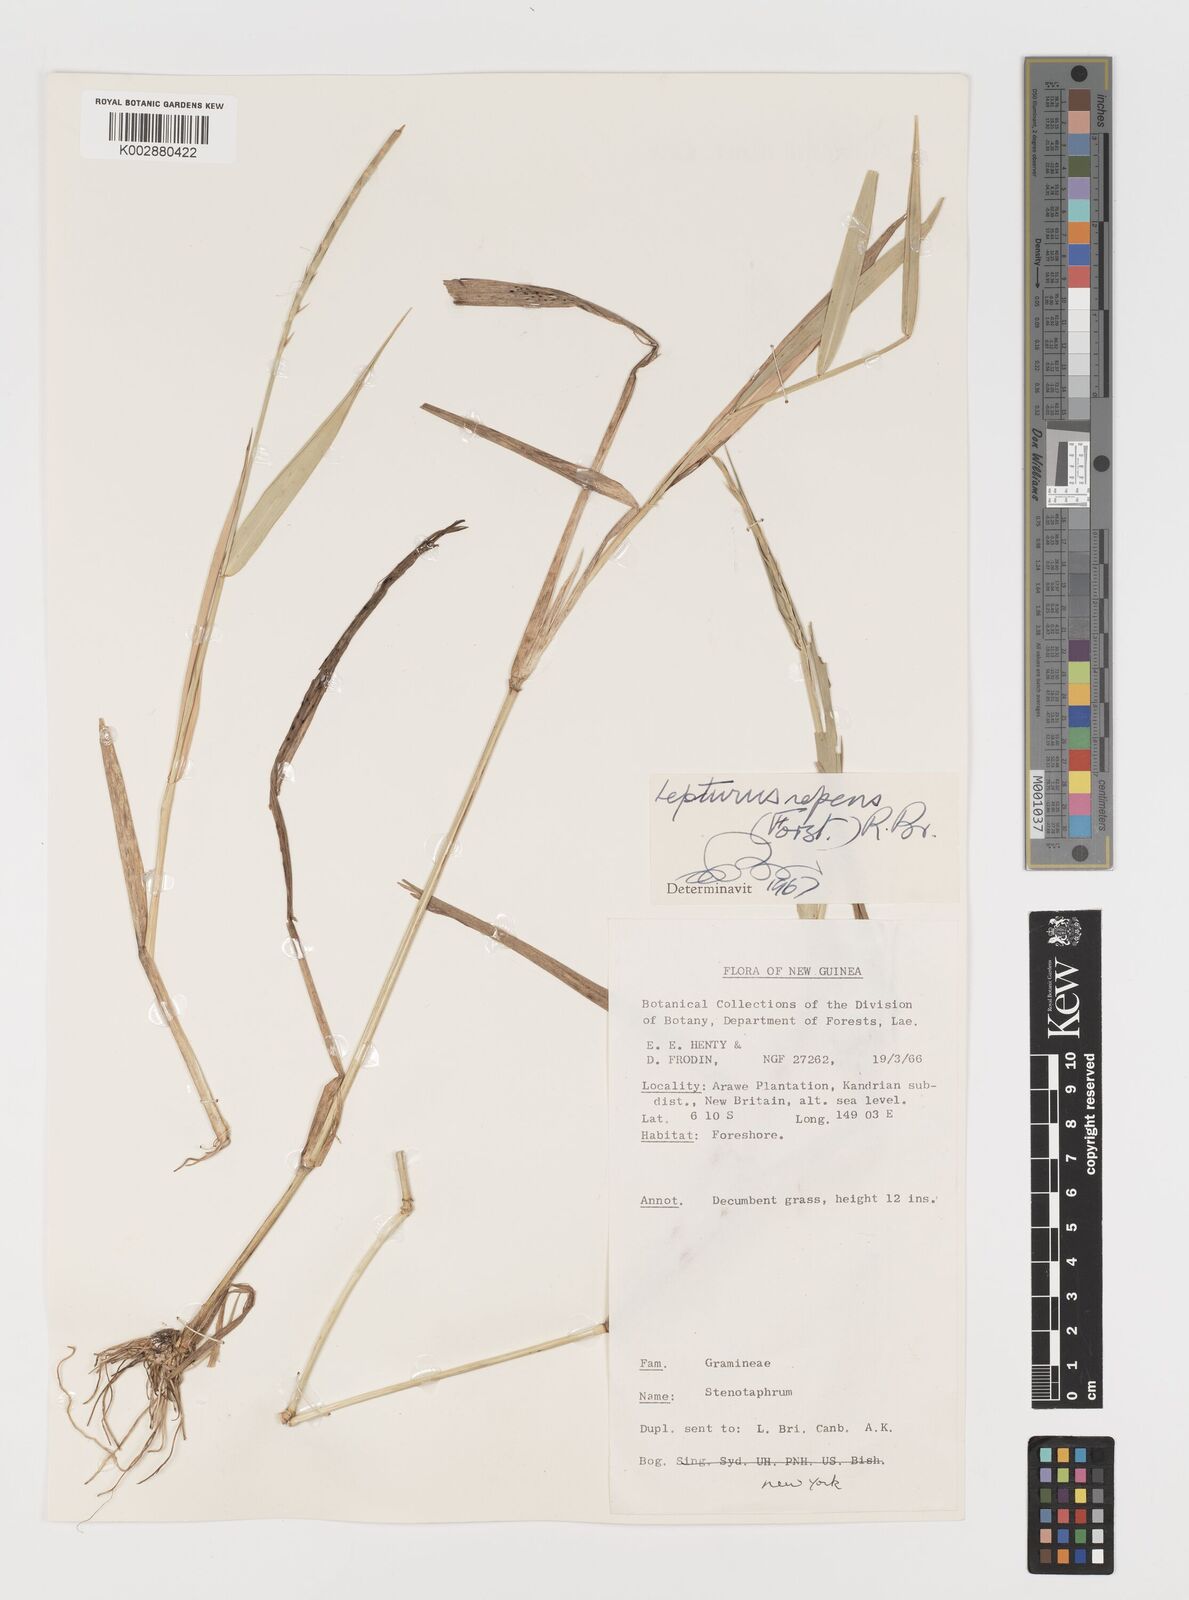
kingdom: Plantae
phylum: Tracheophyta
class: Liliopsida
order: Poales
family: Poaceae
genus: Lepturus
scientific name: Lepturus
